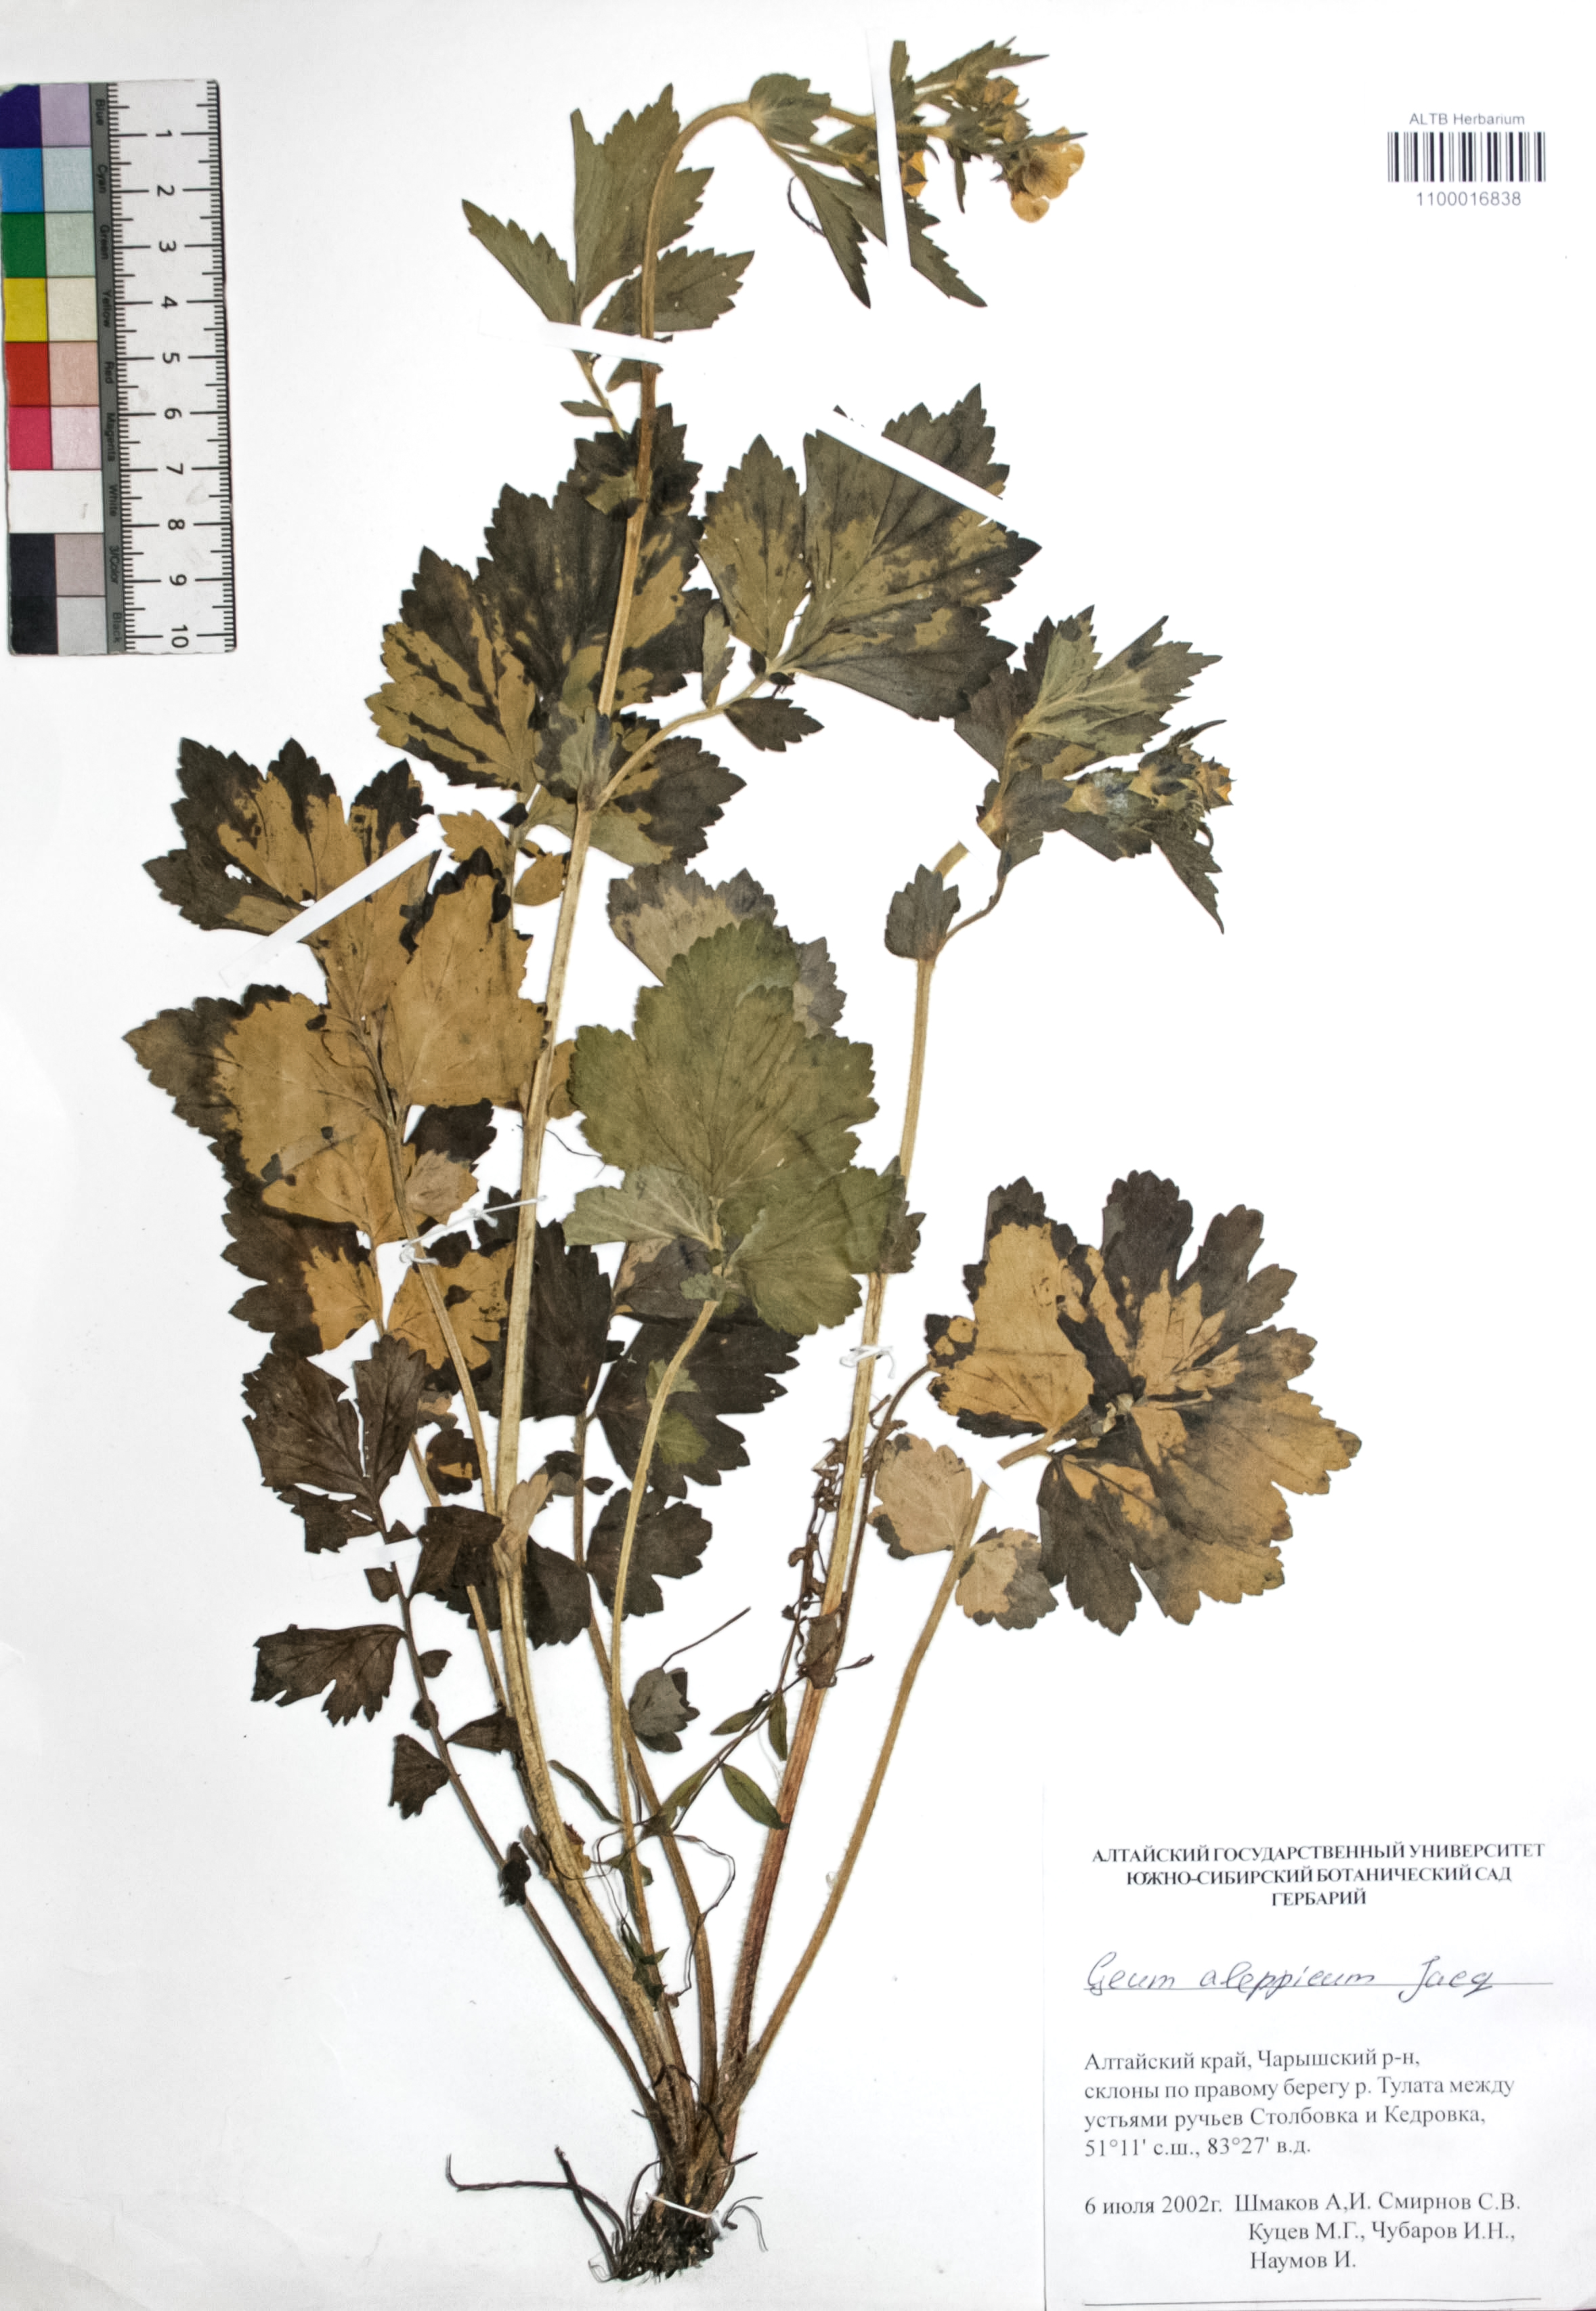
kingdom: Plantae
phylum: Tracheophyta
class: Magnoliopsida
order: Rosales
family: Rosaceae
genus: Geum
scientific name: Geum aleppicum
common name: Yellow avens
